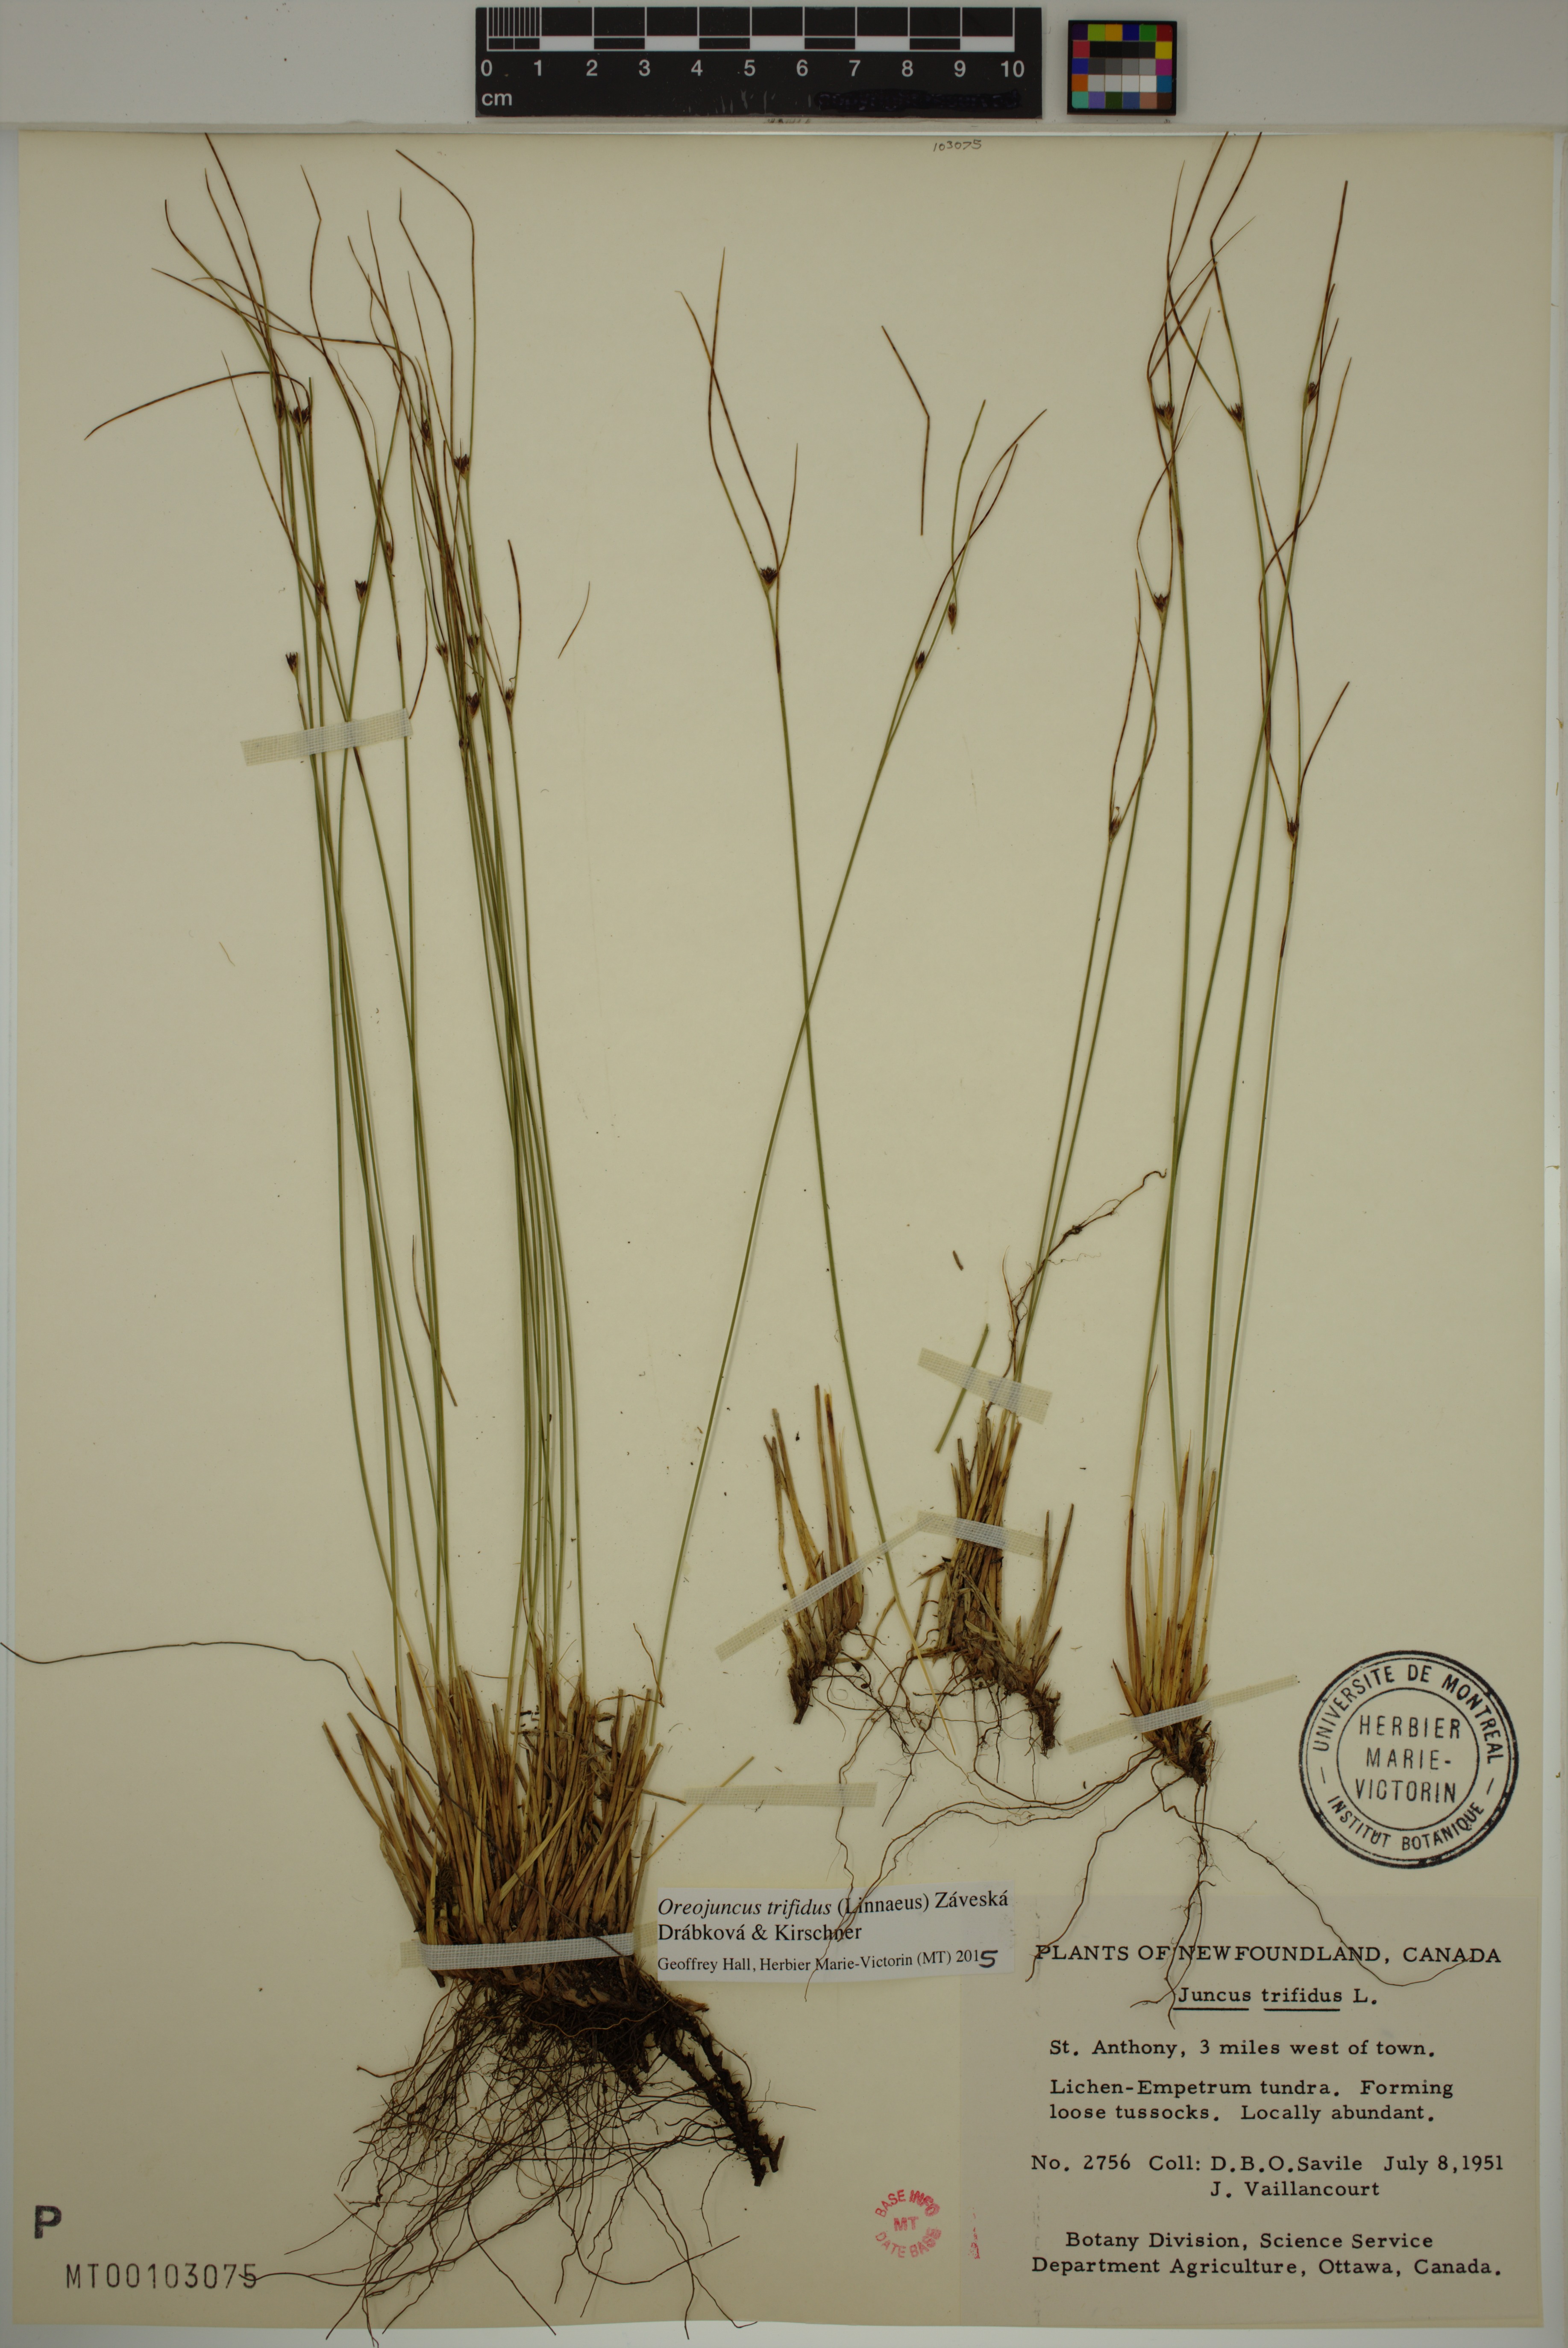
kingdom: Plantae
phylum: Tracheophyta
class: Liliopsida
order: Poales
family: Juncaceae
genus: Oreojuncus
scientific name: Oreojuncus trifidus
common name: Highland rush
